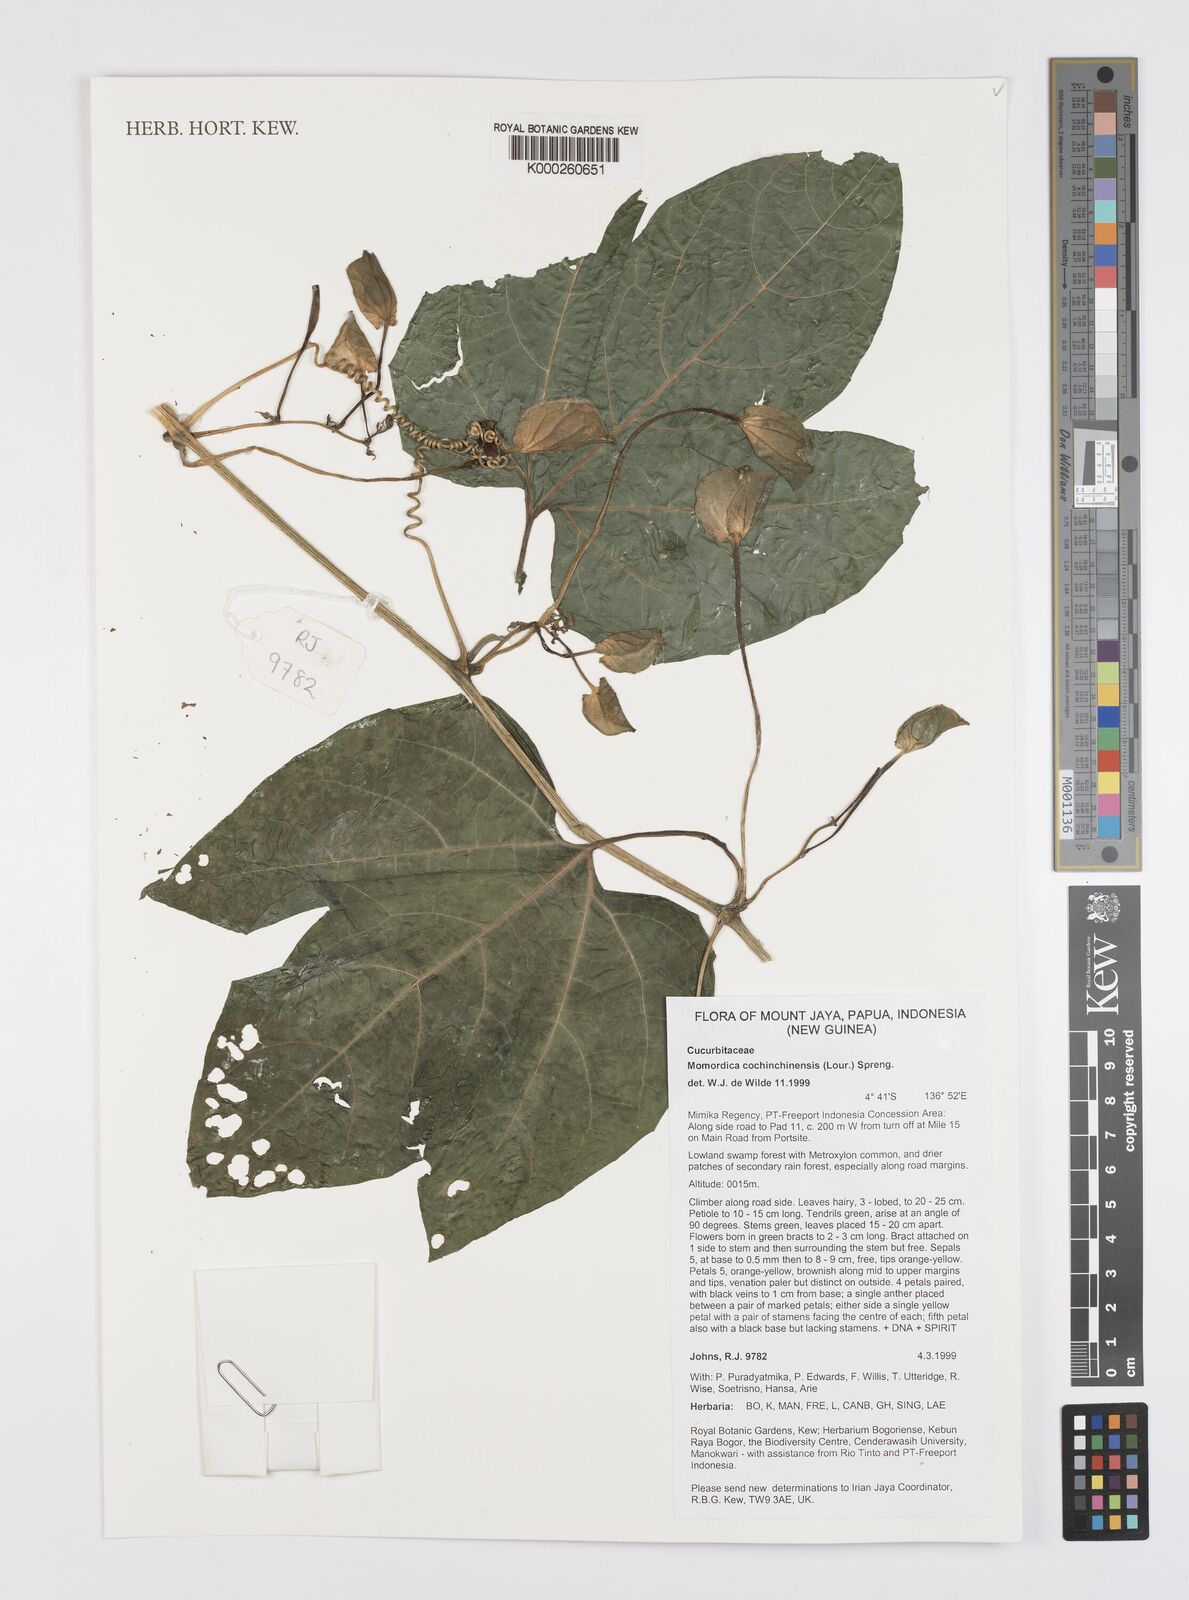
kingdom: Plantae
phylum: Tracheophyta
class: Magnoliopsida
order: Cucurbitales
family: Cucurbitaceae
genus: Momordica
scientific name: Momordica cochinchinensis
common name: Chinese bitter-cucumber
